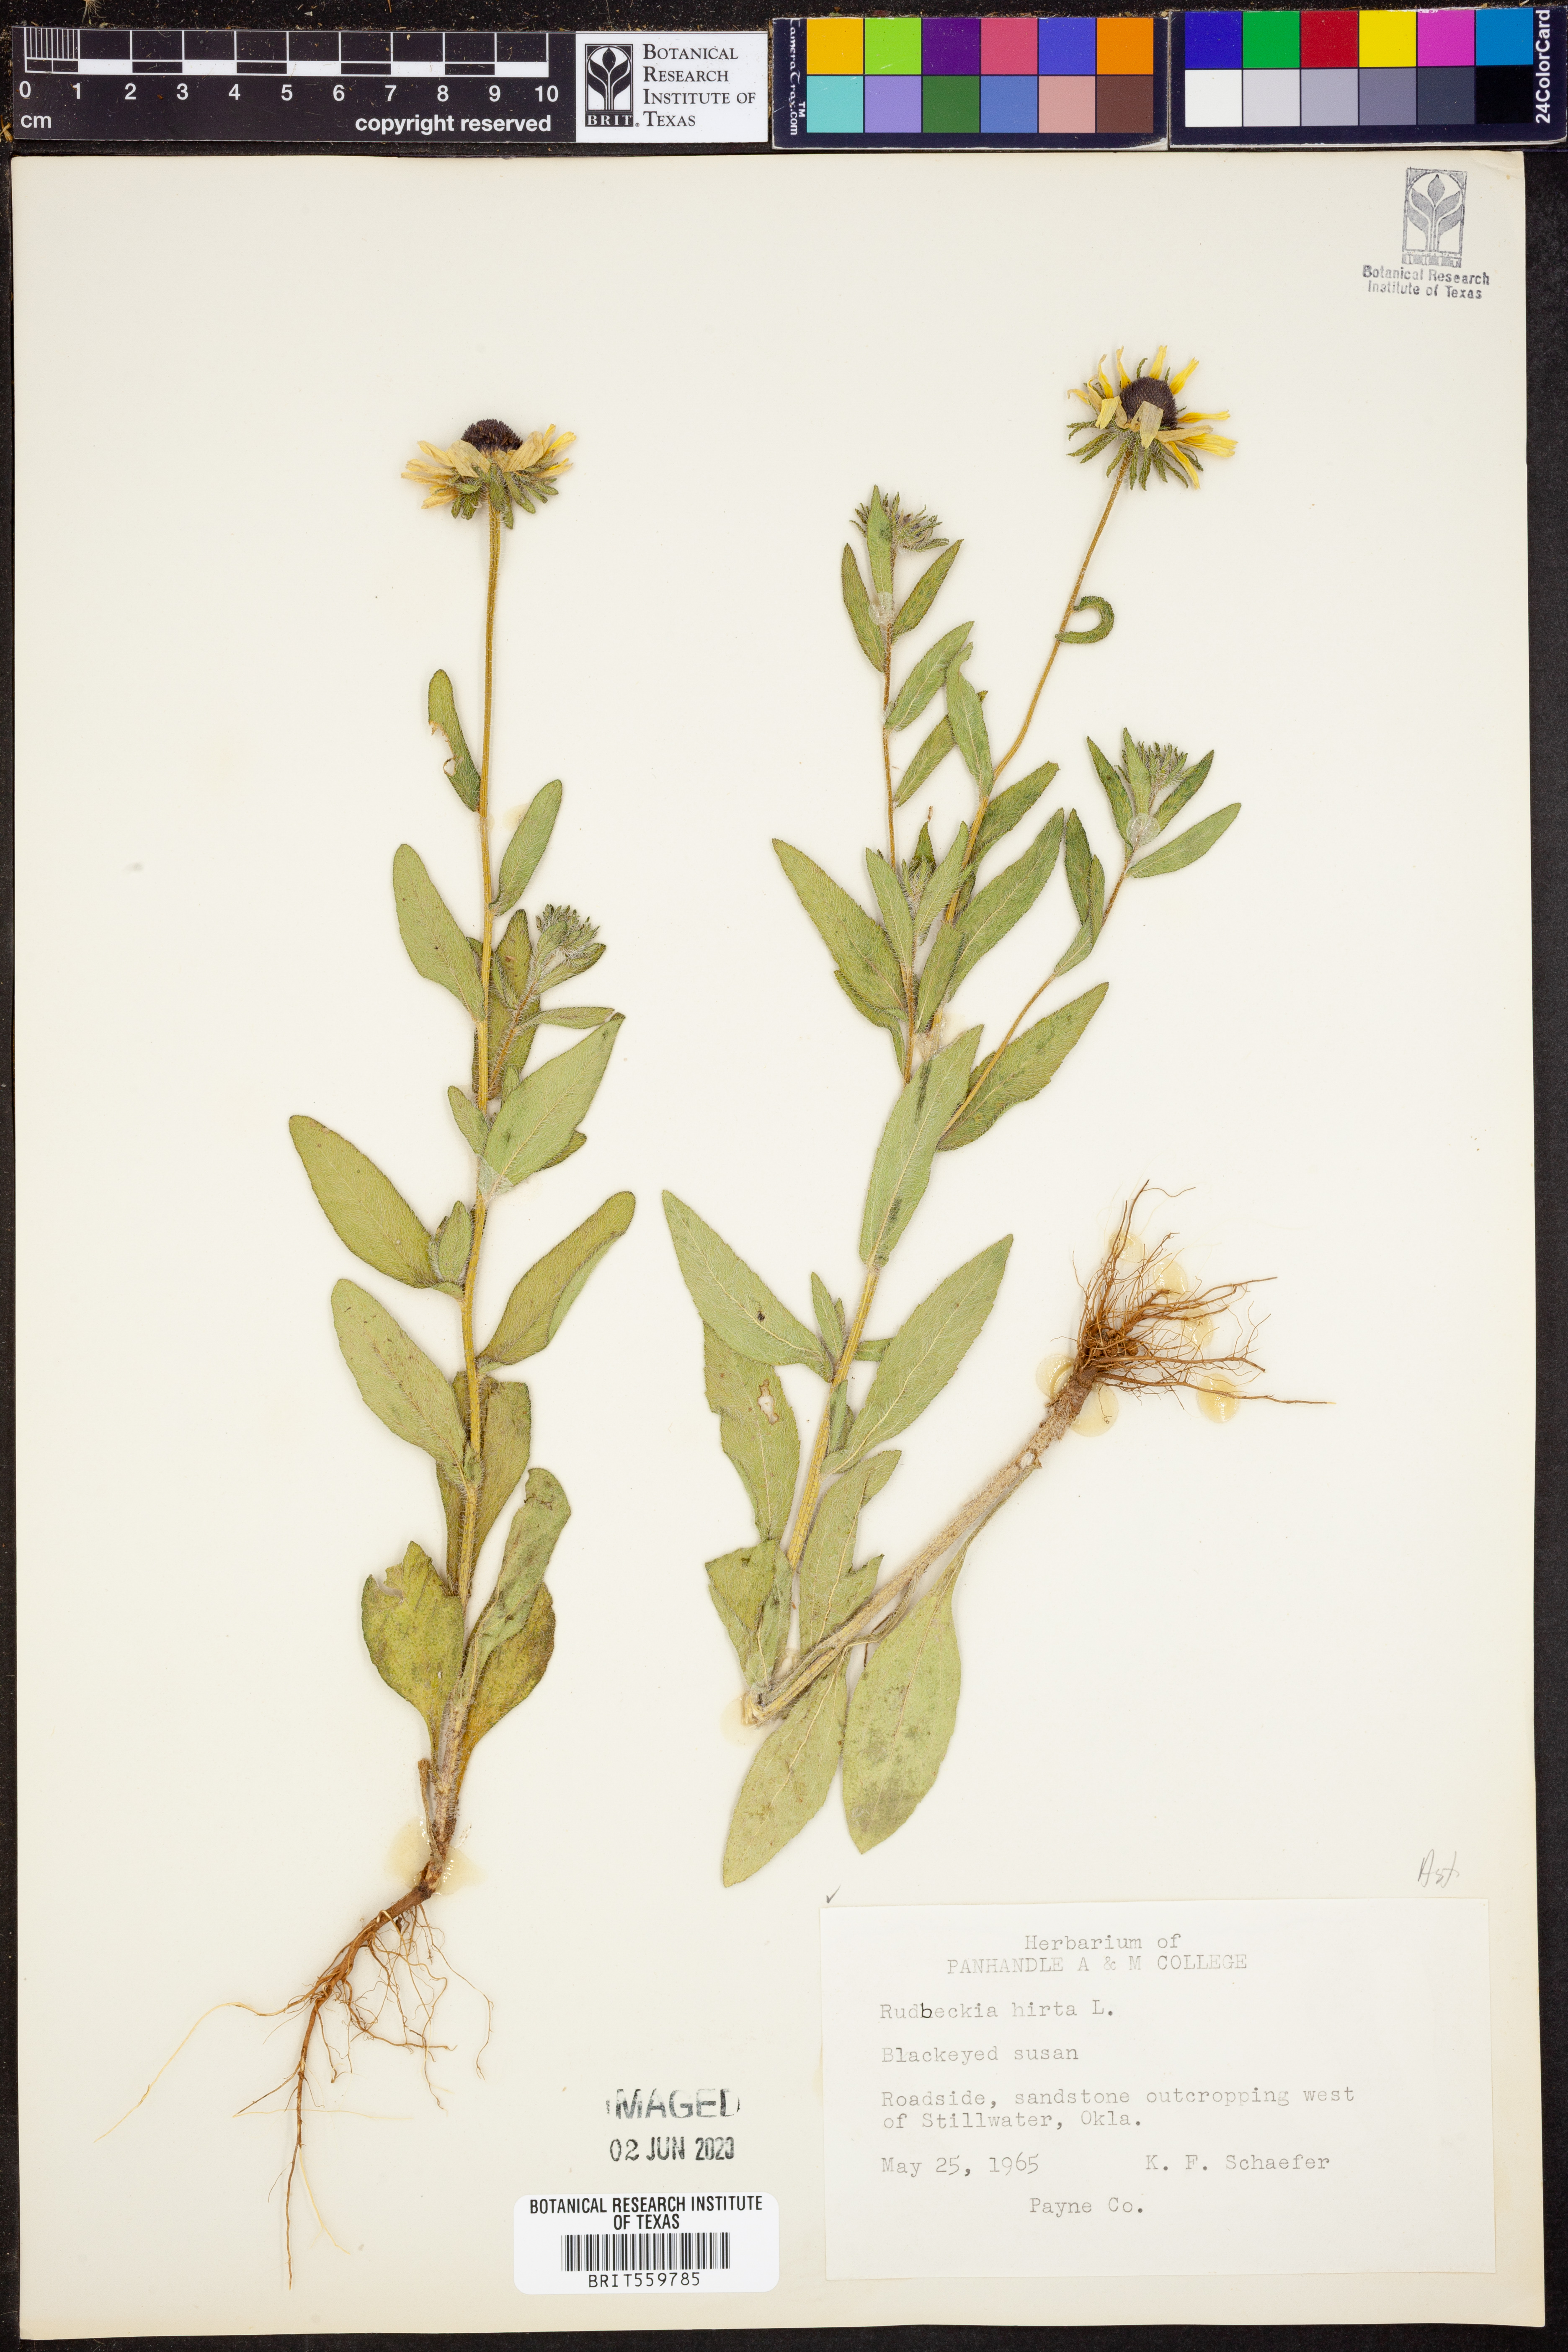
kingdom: Plantae
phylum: Tracheophyta
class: Magnoliopsida
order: Asterales
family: Asteraceae
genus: Rudbeckia
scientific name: Rudbeckia hirta
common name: Black-eyed-susan
